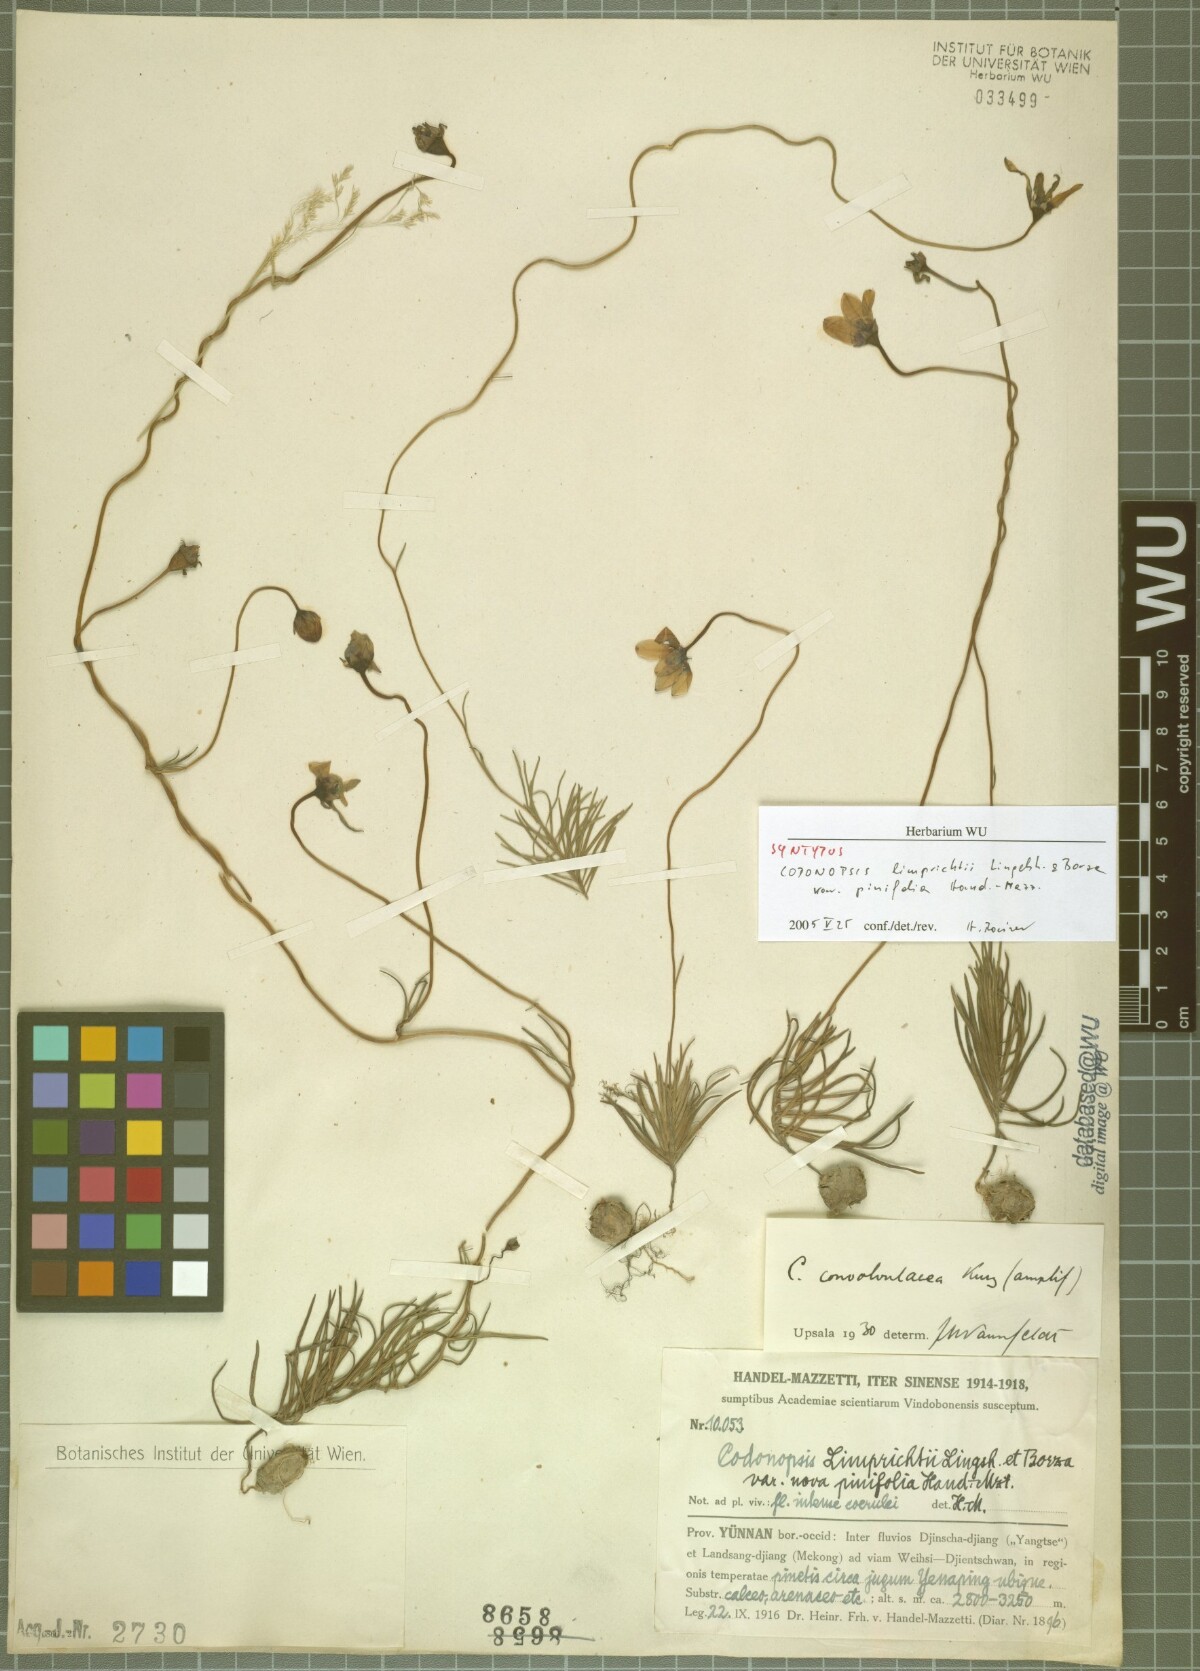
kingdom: Plantae
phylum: Tracheophyta
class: Magnoliopsida
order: Asterales
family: Campanulaceae
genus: Pseudocodon
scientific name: Pseudocodon graminifolius
